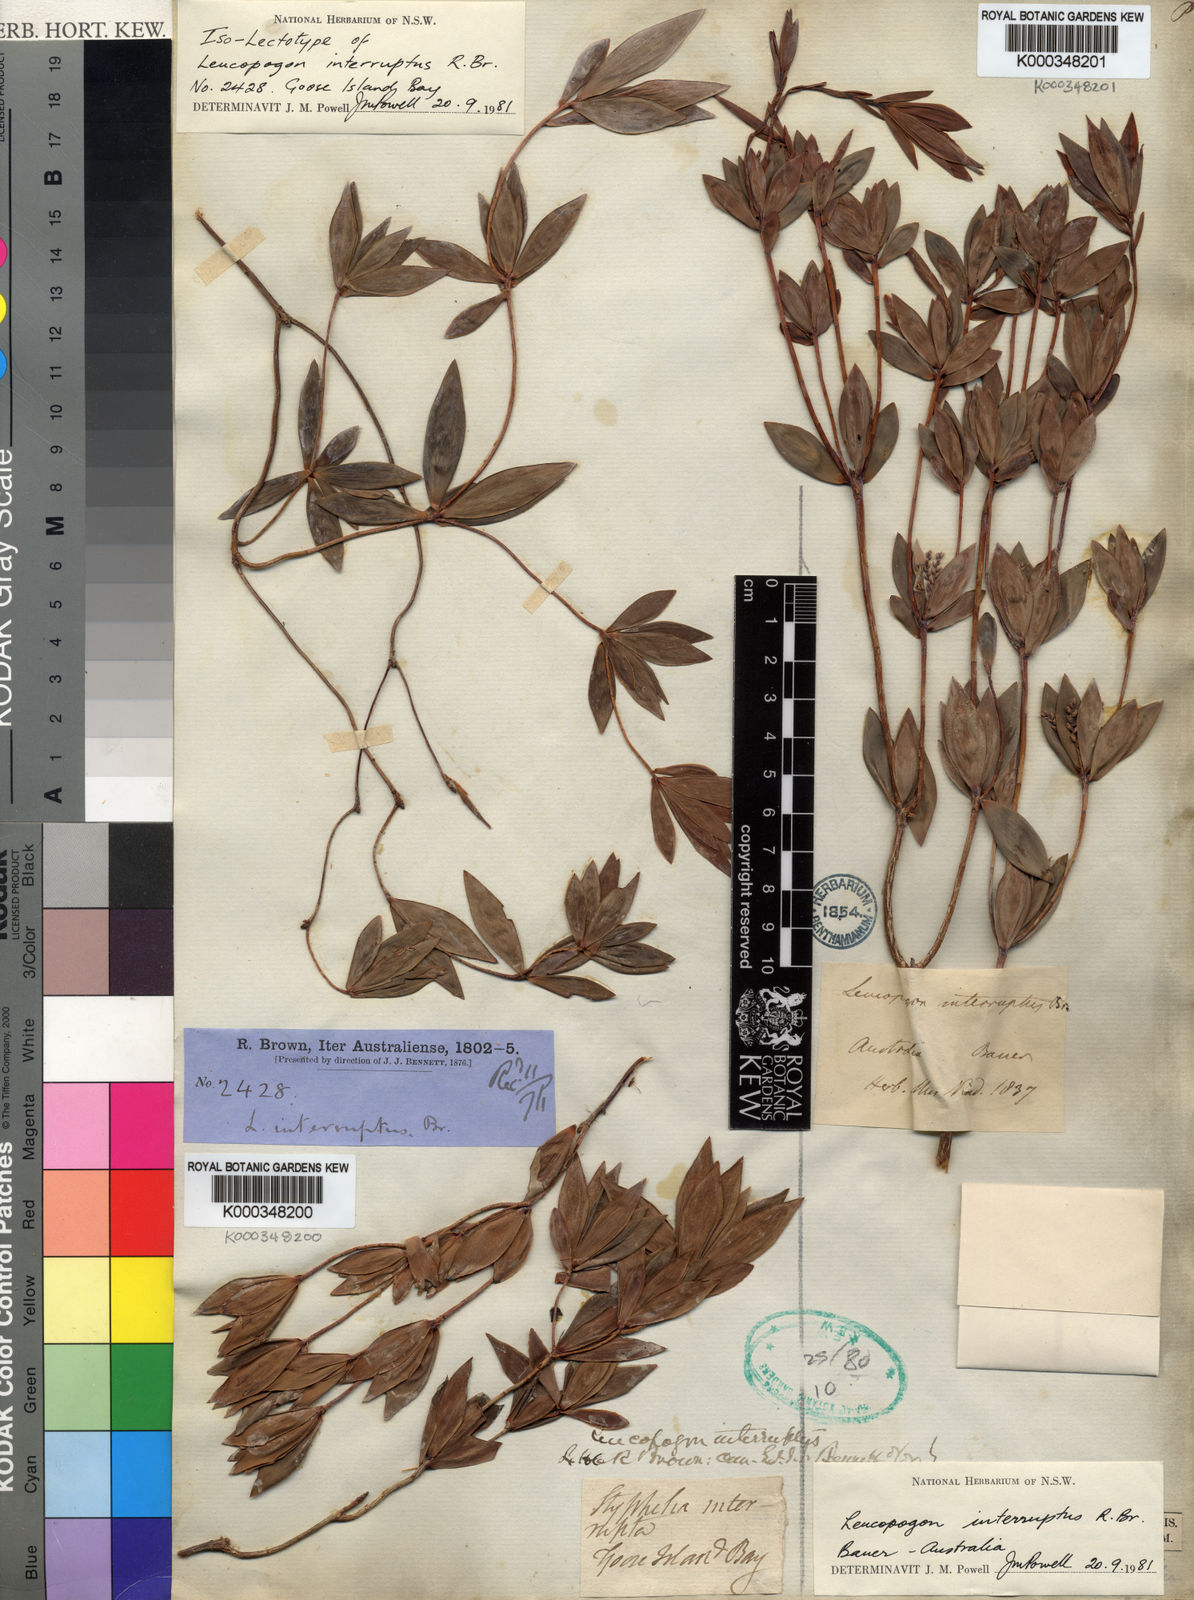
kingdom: Plantae
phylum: Tracheophyta
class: Magnoliopsida
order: Ericales
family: Ericaceae
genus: Leucopogon
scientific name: Leucopogon interruptus
